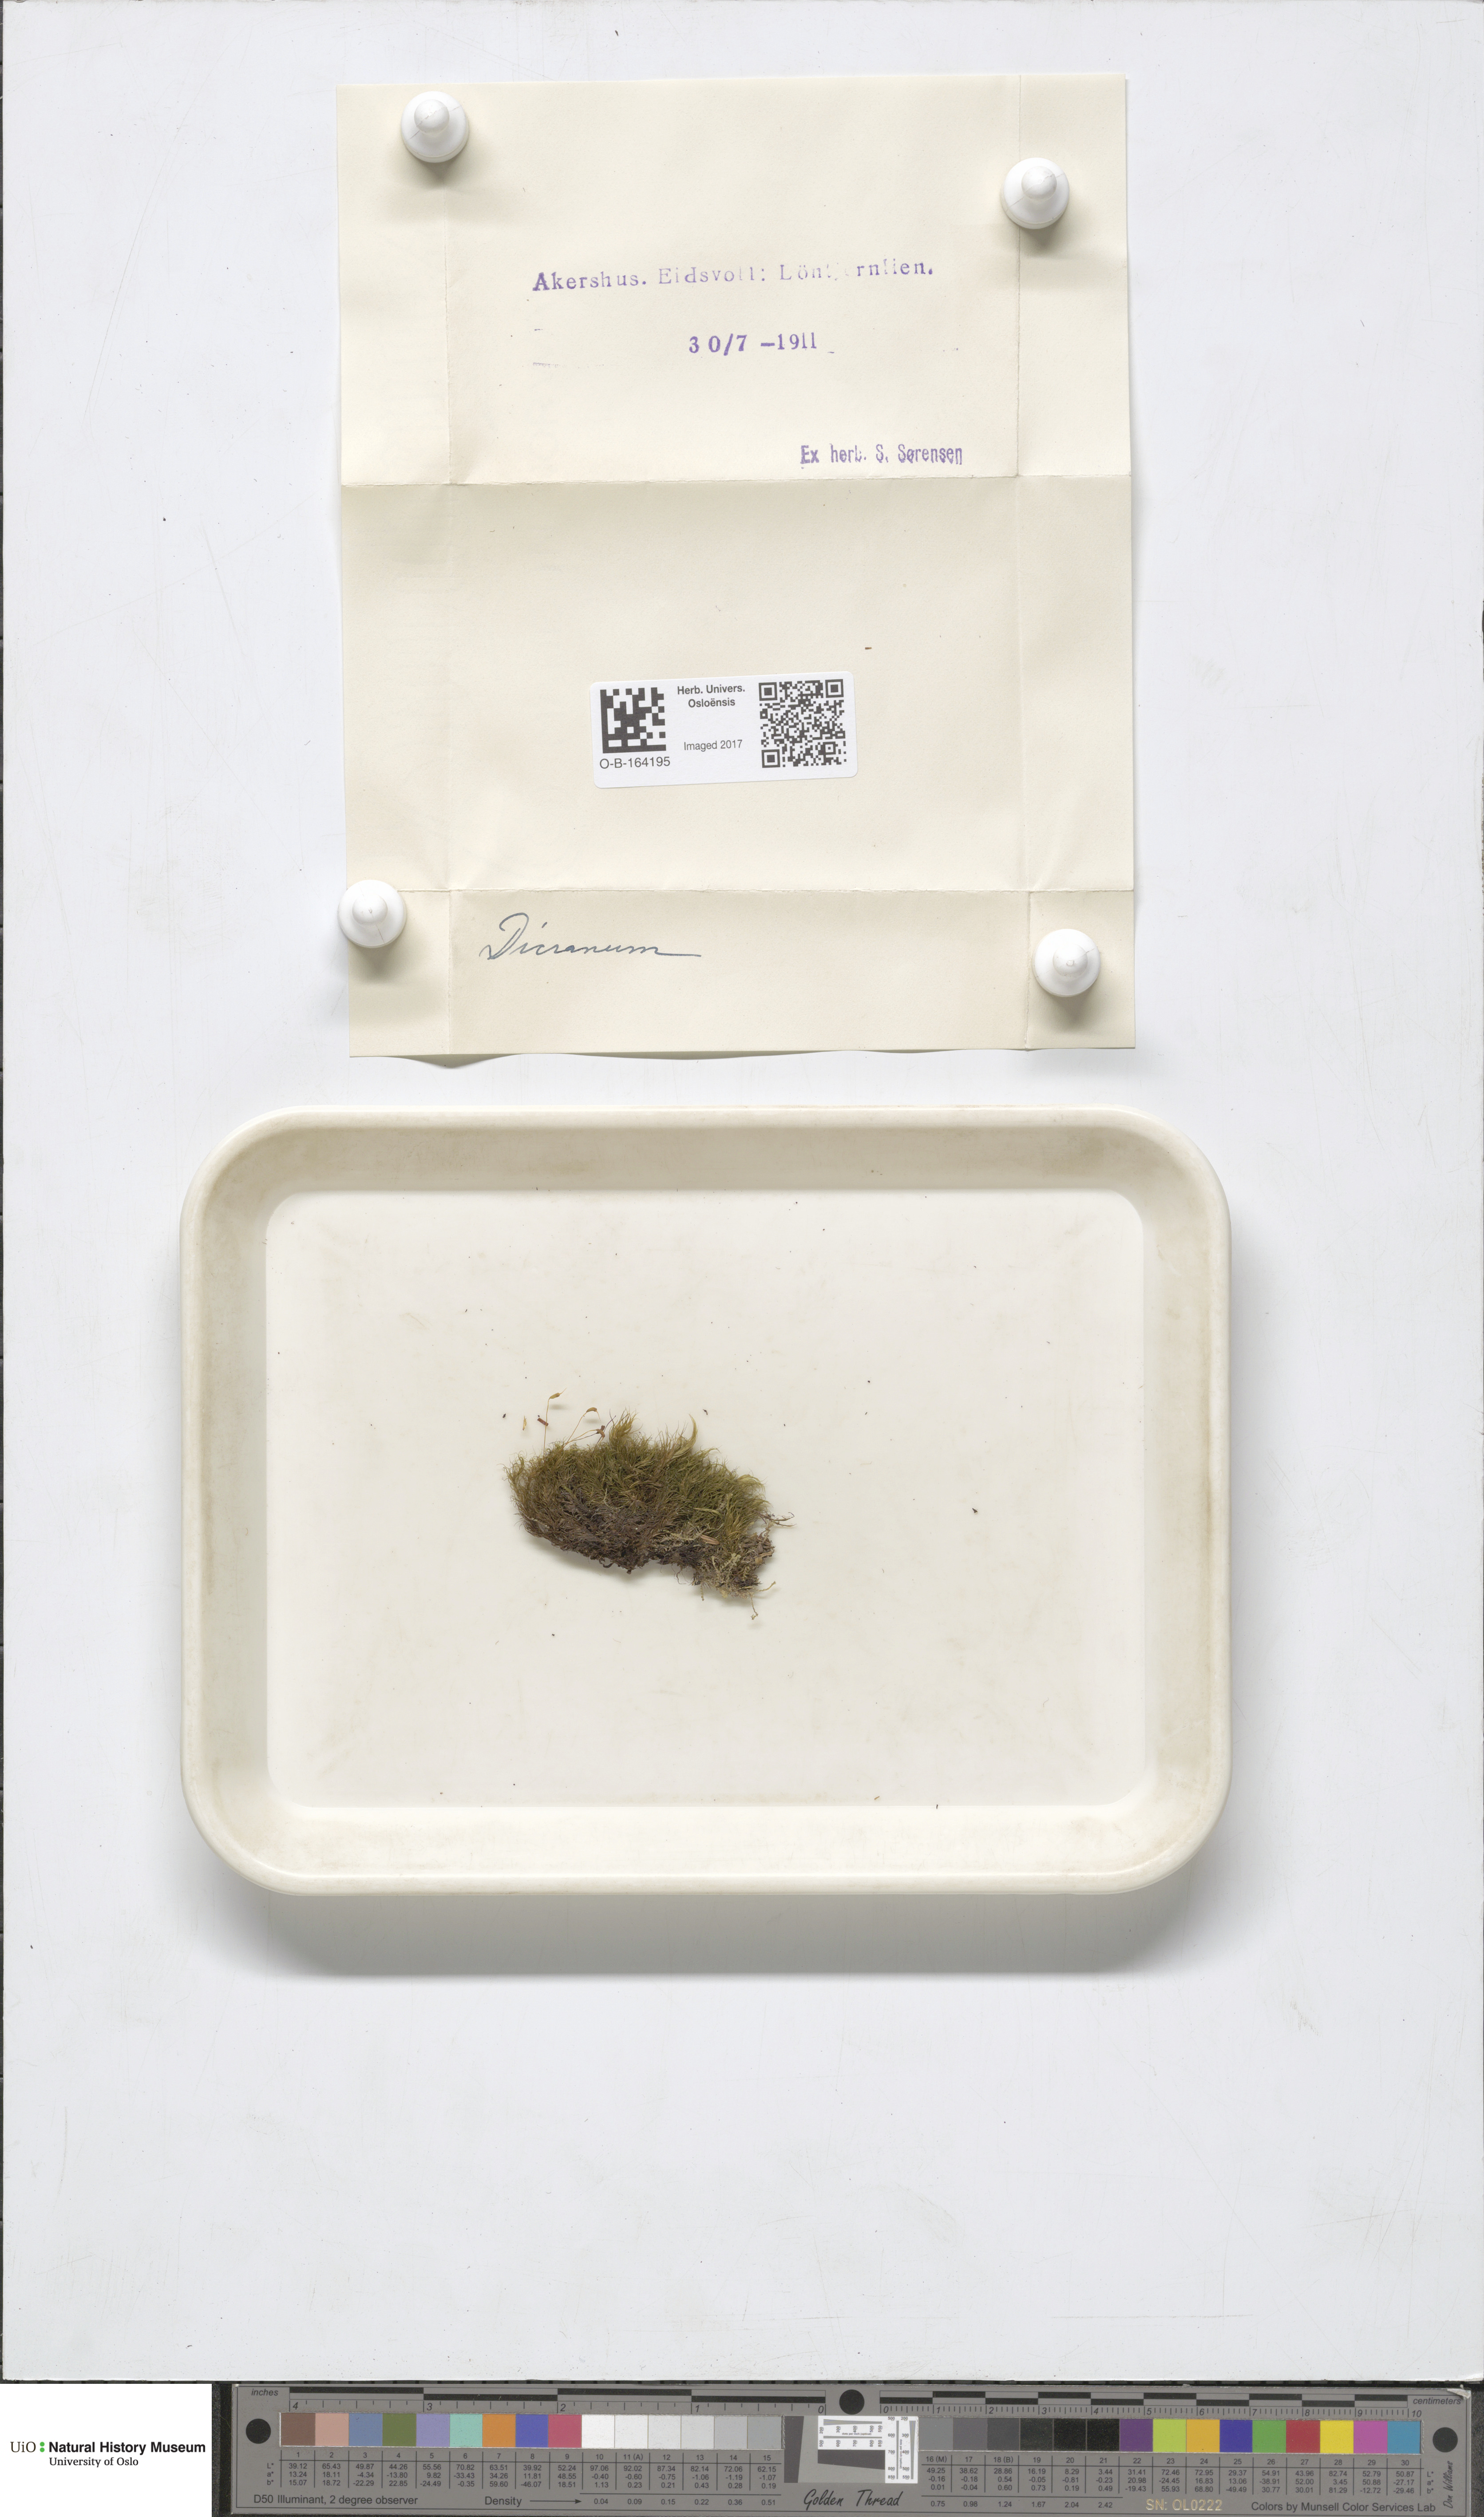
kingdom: Plantae
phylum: Bryophyta
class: Bryopsida
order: Dicranales
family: Dicranaceae
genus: Dicranum
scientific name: Dicranum
